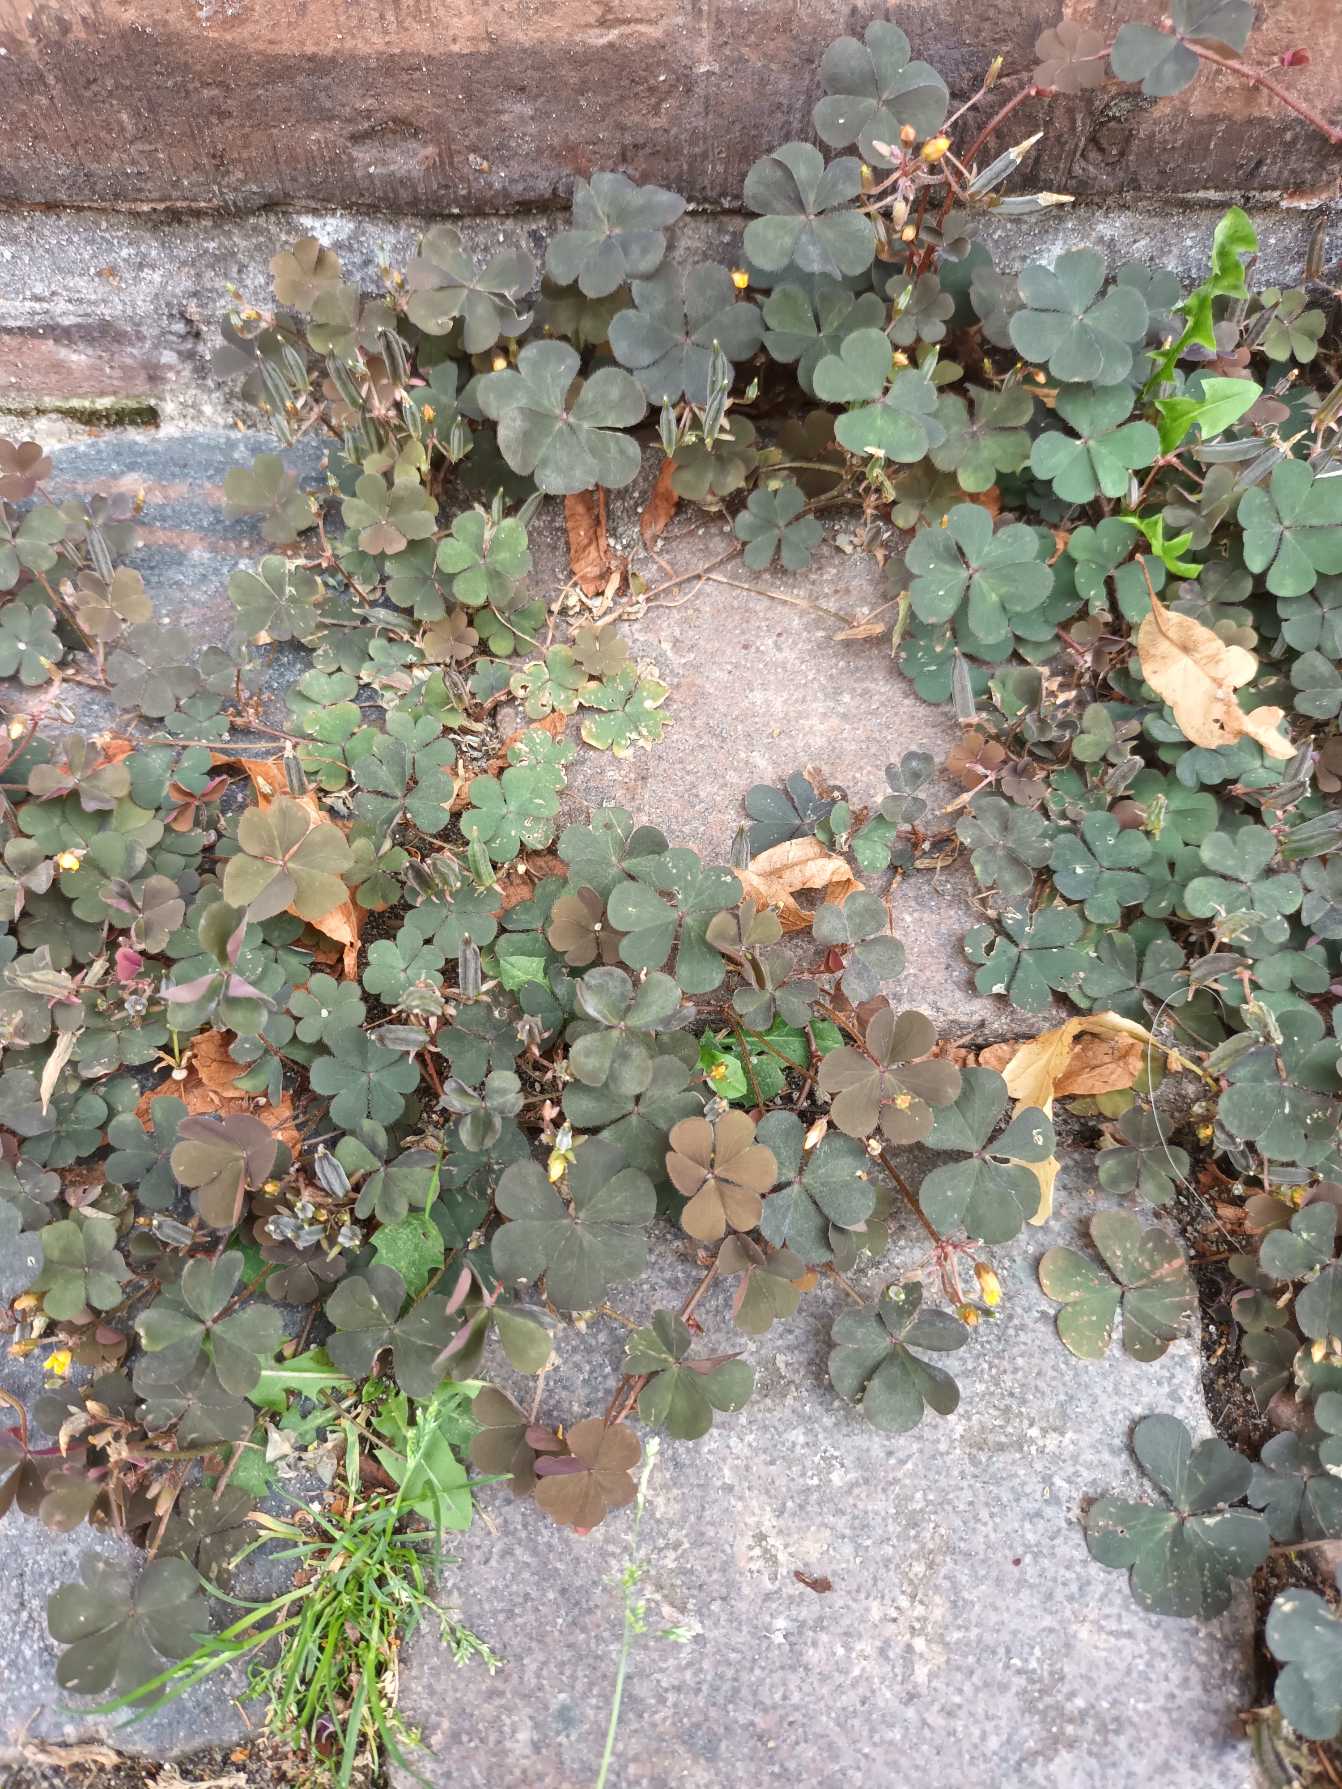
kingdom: Plantae
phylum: Tracheophyta
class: Magnoliopsida
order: Oxalidales
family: Oxalidaceae
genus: Oxalis
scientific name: Oxalis corniculata
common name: Nedliggende surkløver
